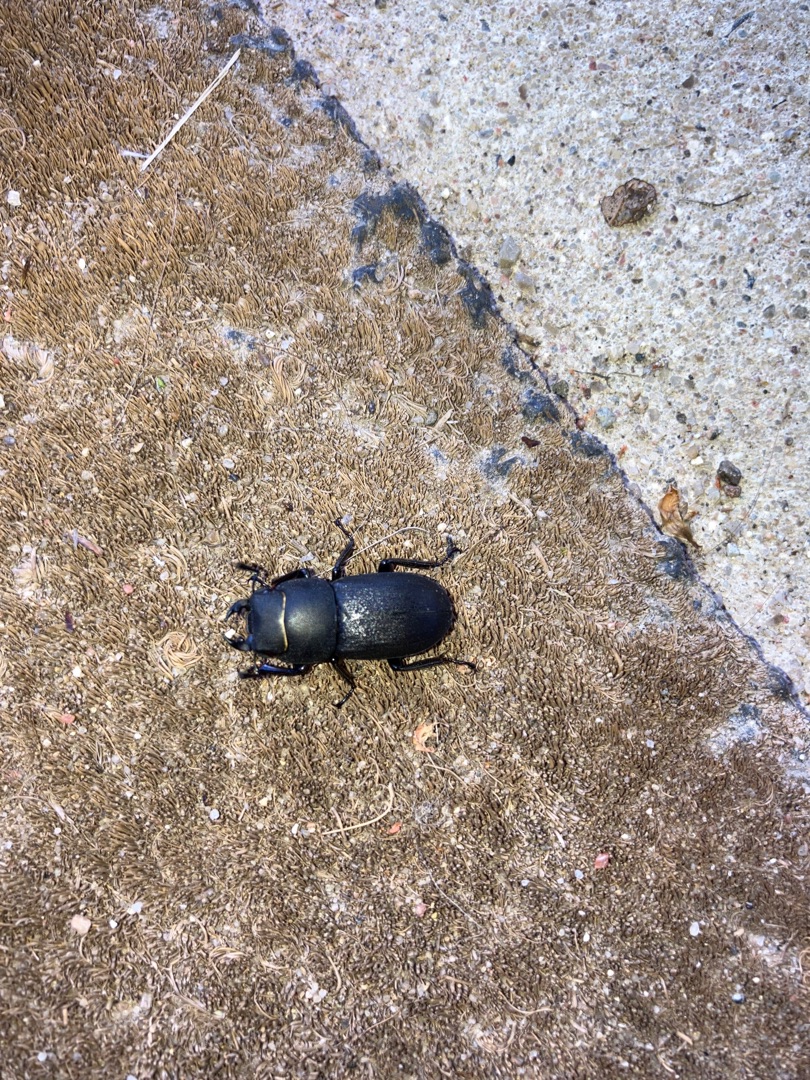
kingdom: Animalia
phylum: Arthropoda
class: Insecta
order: Coleoptera
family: Lucanidae
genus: Dorcus
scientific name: Dorcus parallelipipedus
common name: Bøghjort
